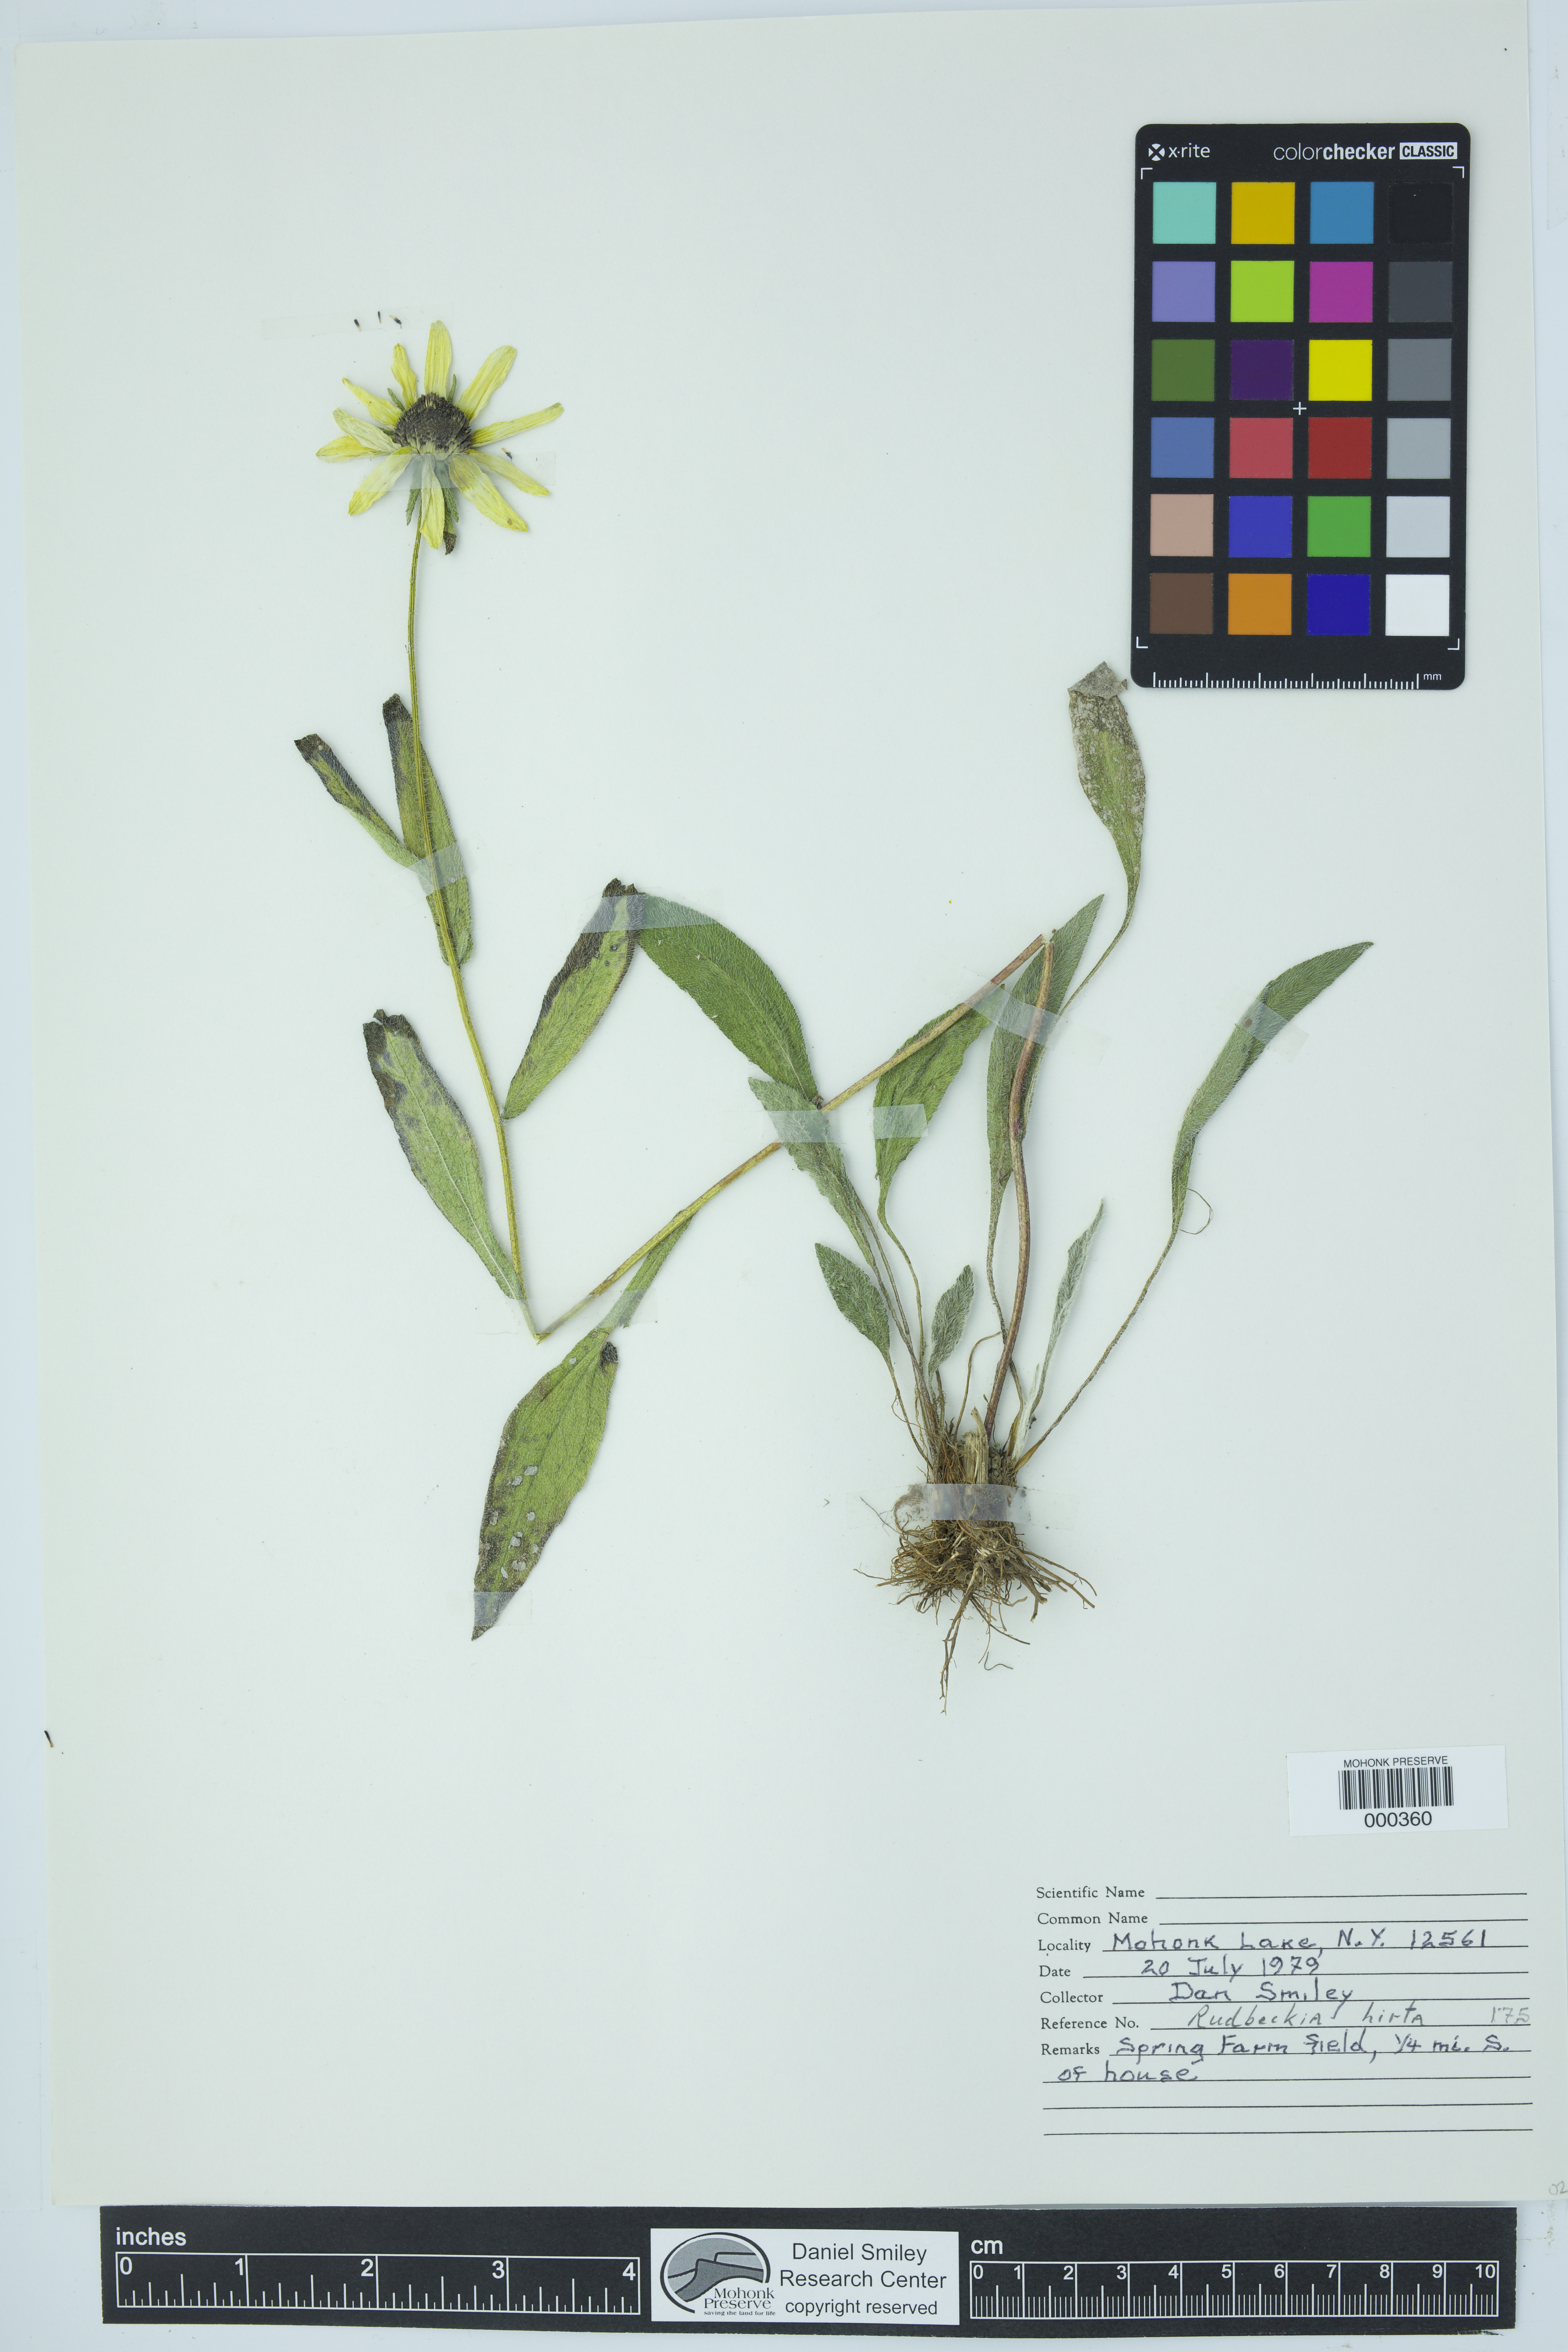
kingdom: Plantae
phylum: Tracheophyta
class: Magnoliopsida
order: Asterales
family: Asteraceae
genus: Rudbeckia
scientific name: Rudbeckia hirta
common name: Black-eyed-susan
